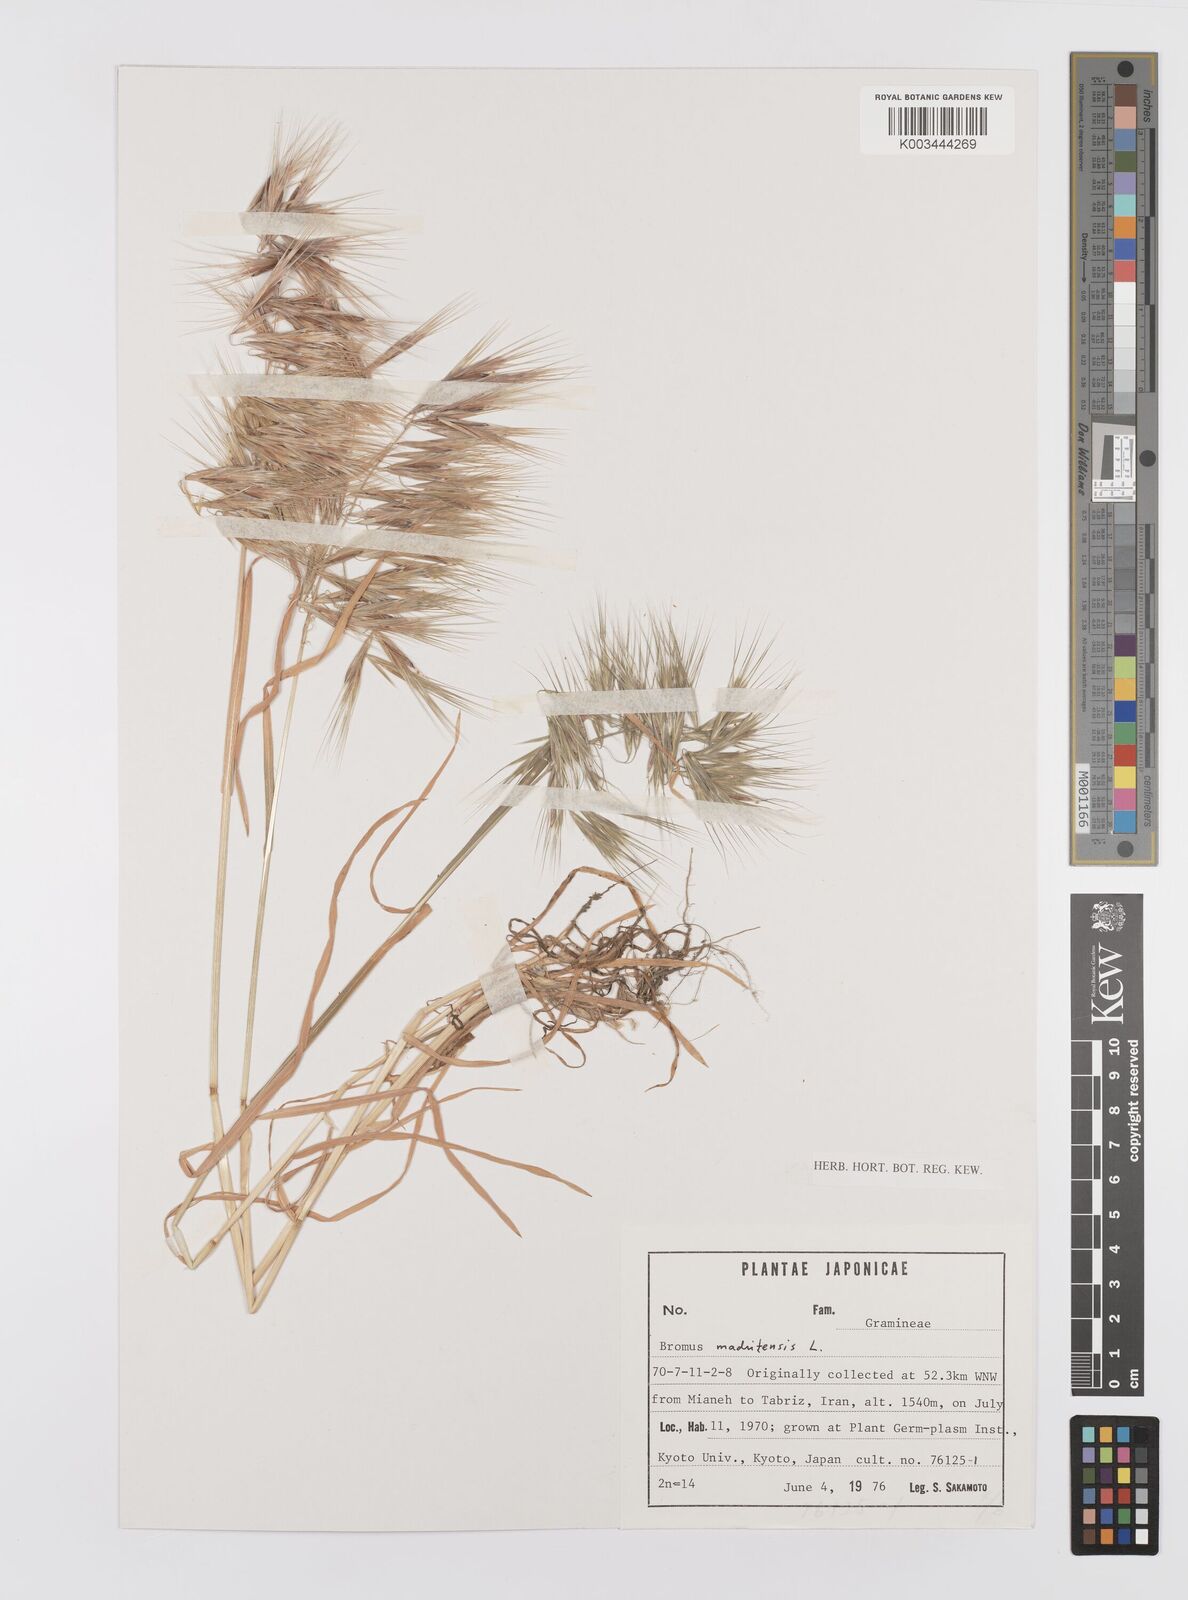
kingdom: Plantae
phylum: Tracheophyta
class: Liliopsida
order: Poales
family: Poaceae
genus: Bromus
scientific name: Bromus madritensis
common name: Compact brome
